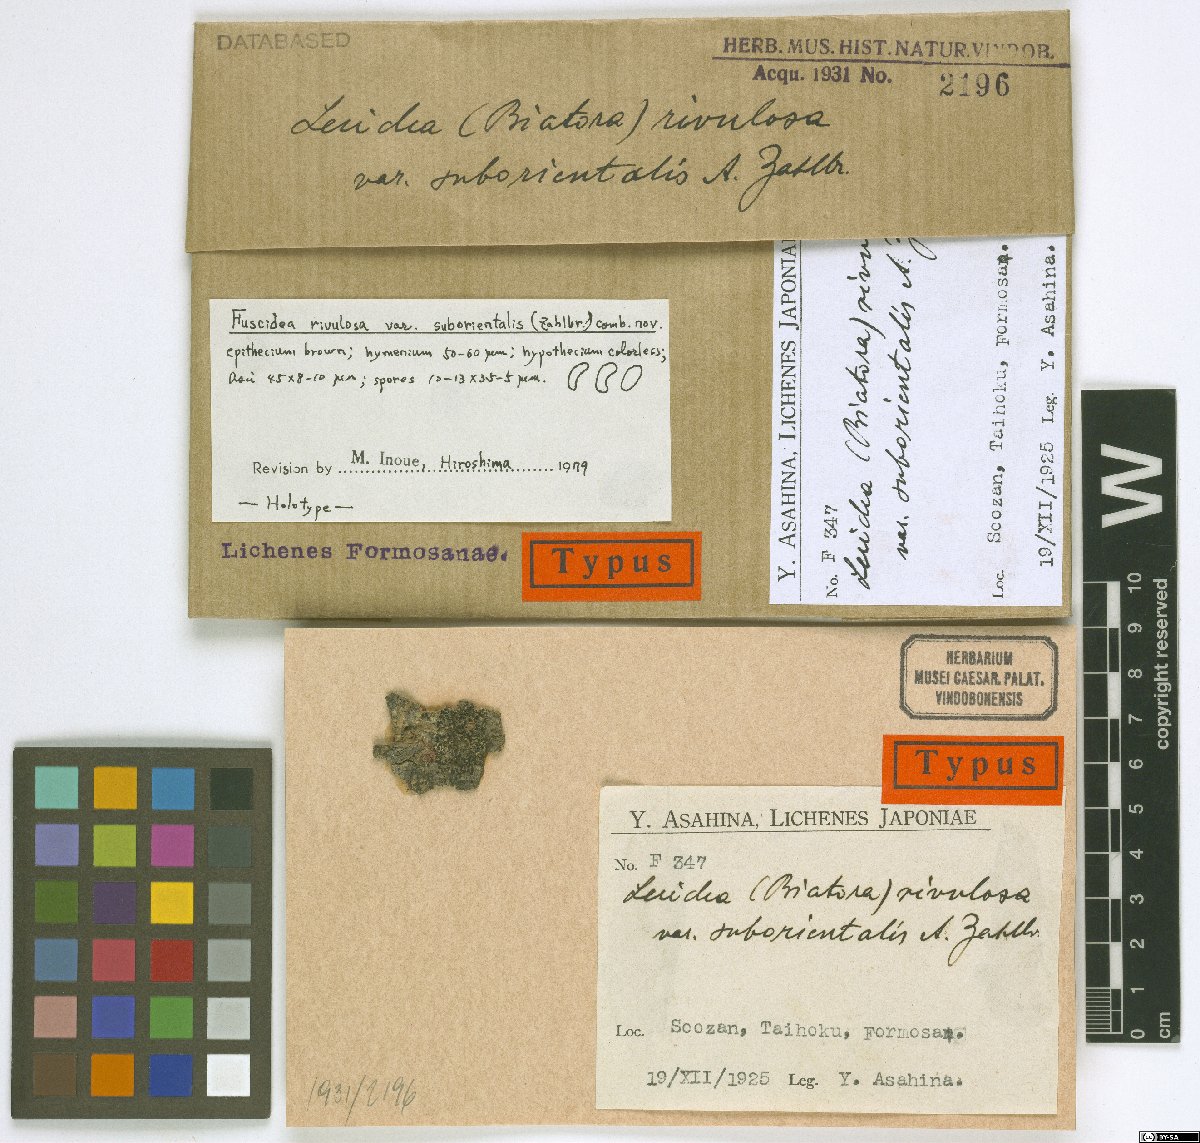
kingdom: Fungi
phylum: Ascomycota
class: Lecanoromycetes
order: Lecideales
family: Lecideaceae
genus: Lecidea
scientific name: Lecidea rivulorum
